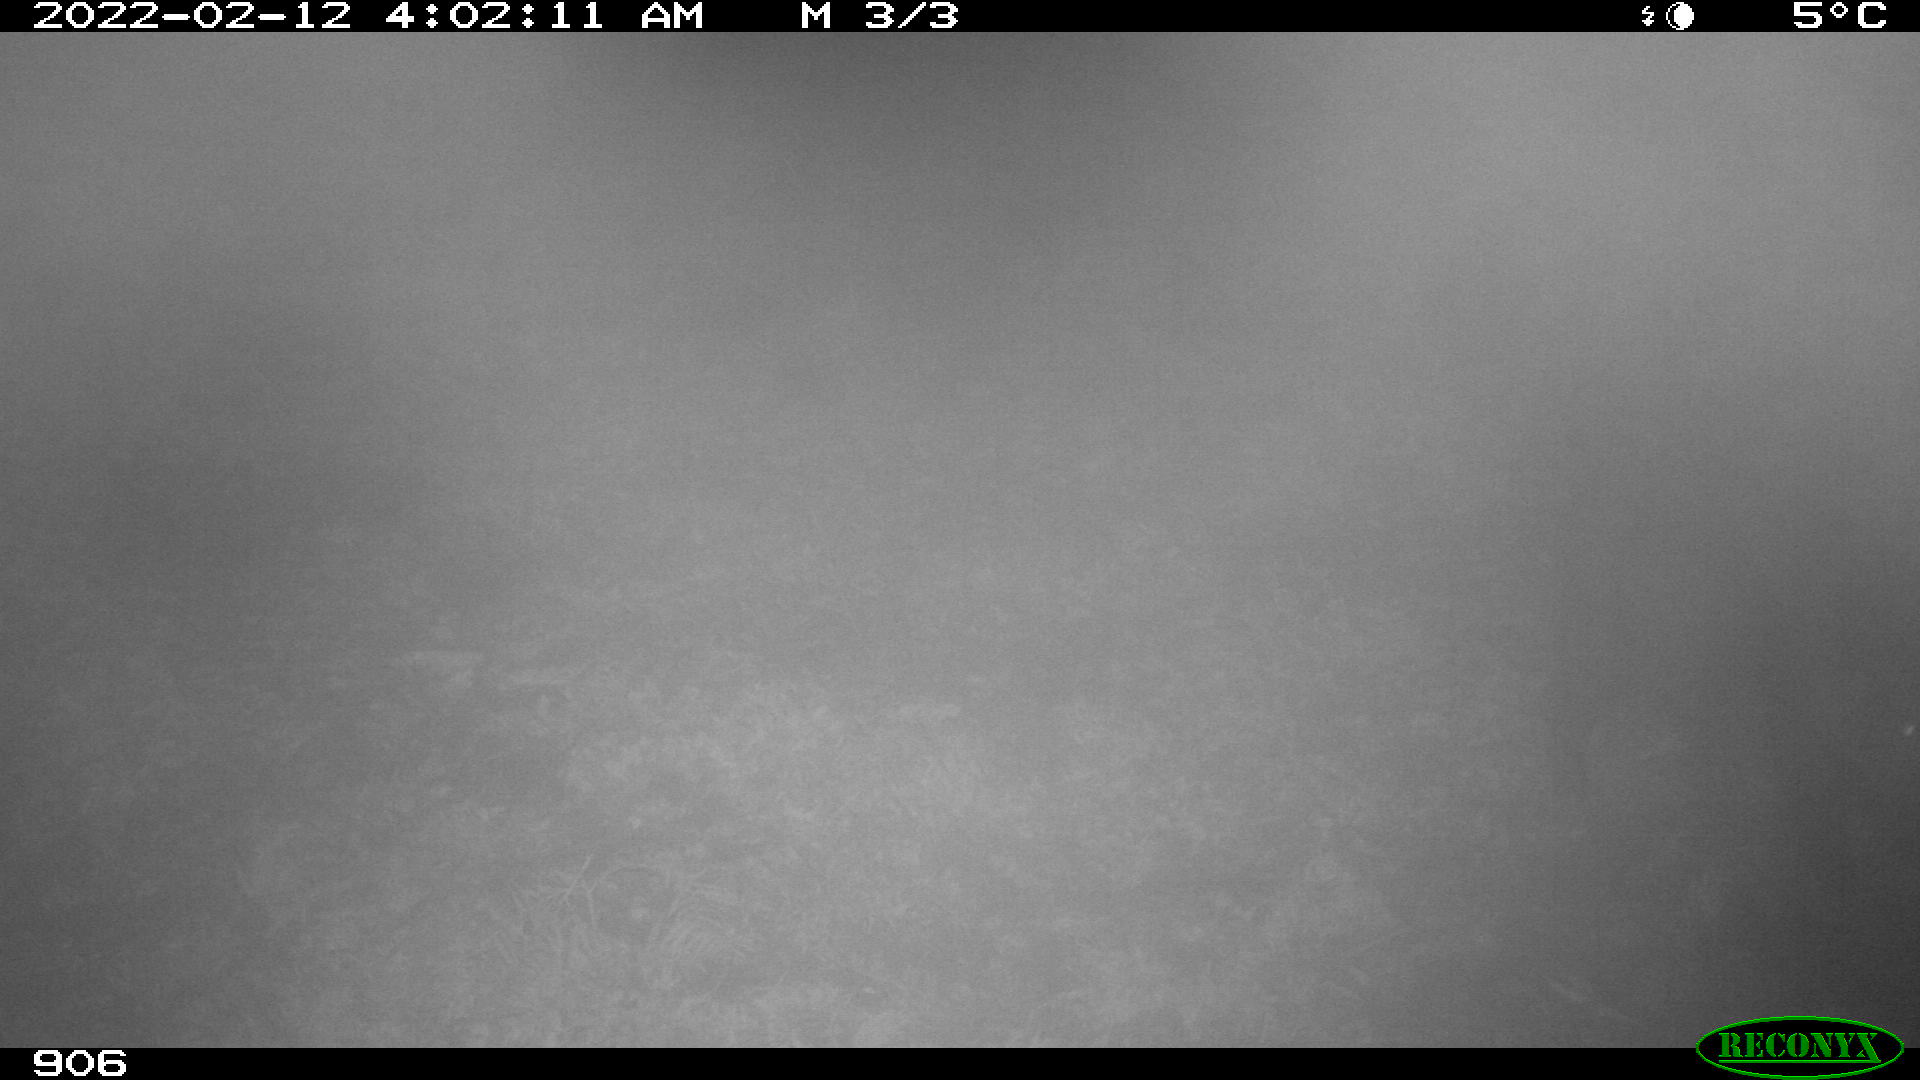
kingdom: Animalia
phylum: Chordata
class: Mammalia
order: Artiodactyla
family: Suidae
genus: Sus
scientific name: Sus scrofa
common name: Wild boar
